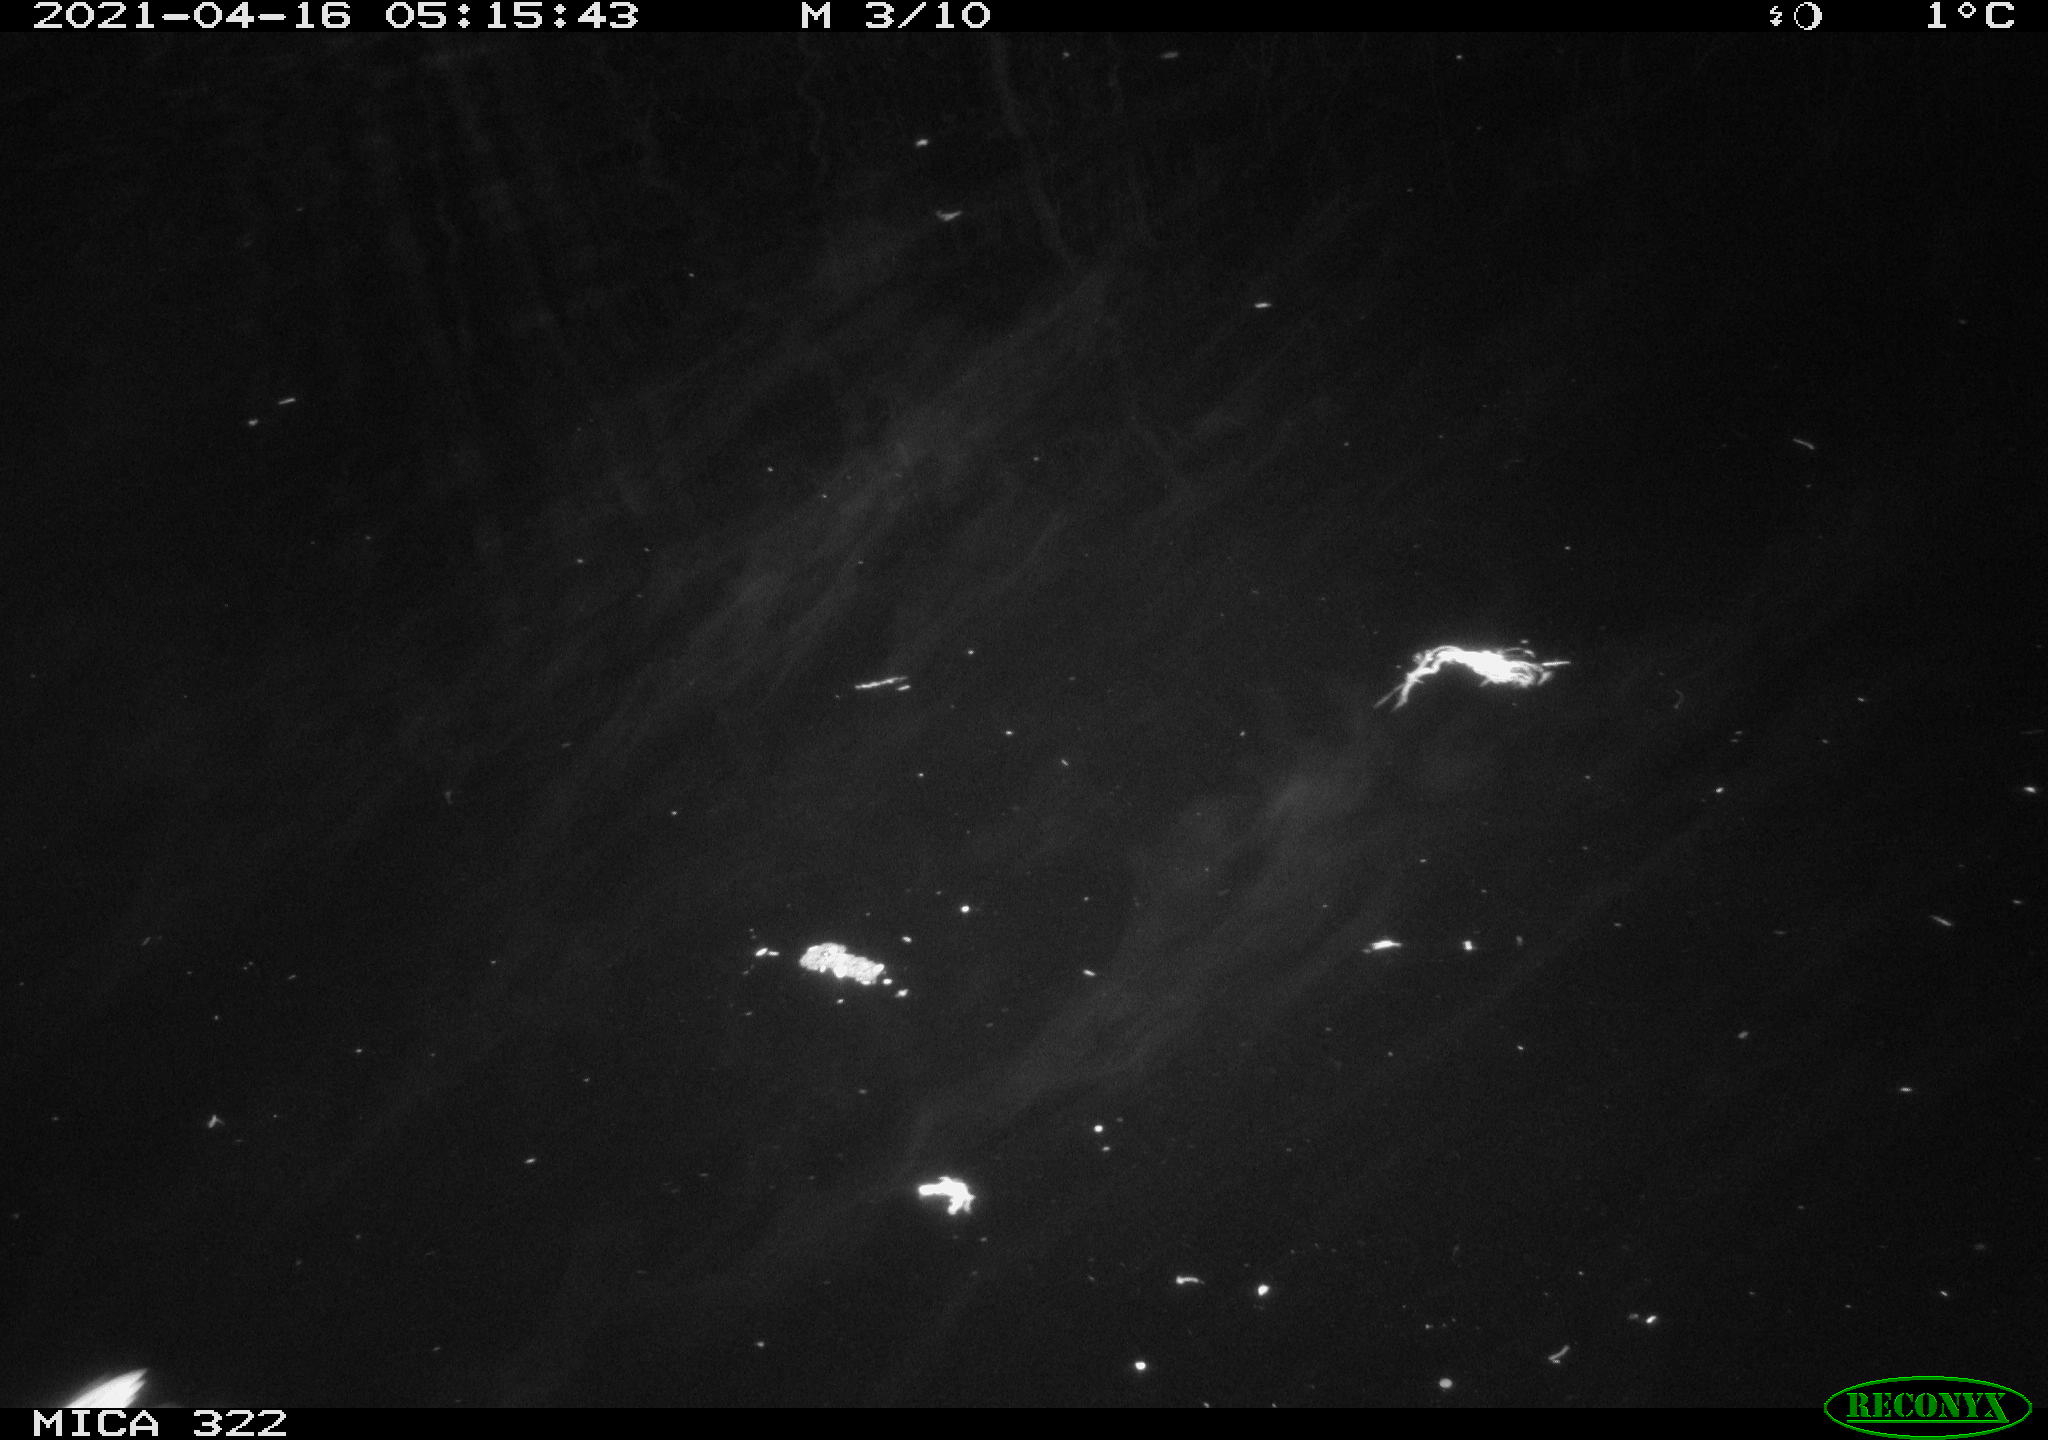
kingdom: Animalia
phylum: Chordata
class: Aves
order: Anseriformes
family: Anatidae
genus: Anas
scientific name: Anas platyrhynchos
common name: Mallard
